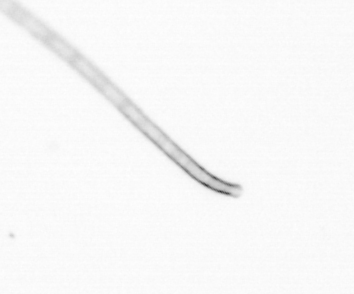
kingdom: Chromista
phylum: Ochrophyta
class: Bacillariophyceae
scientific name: Bacillariophyceae
